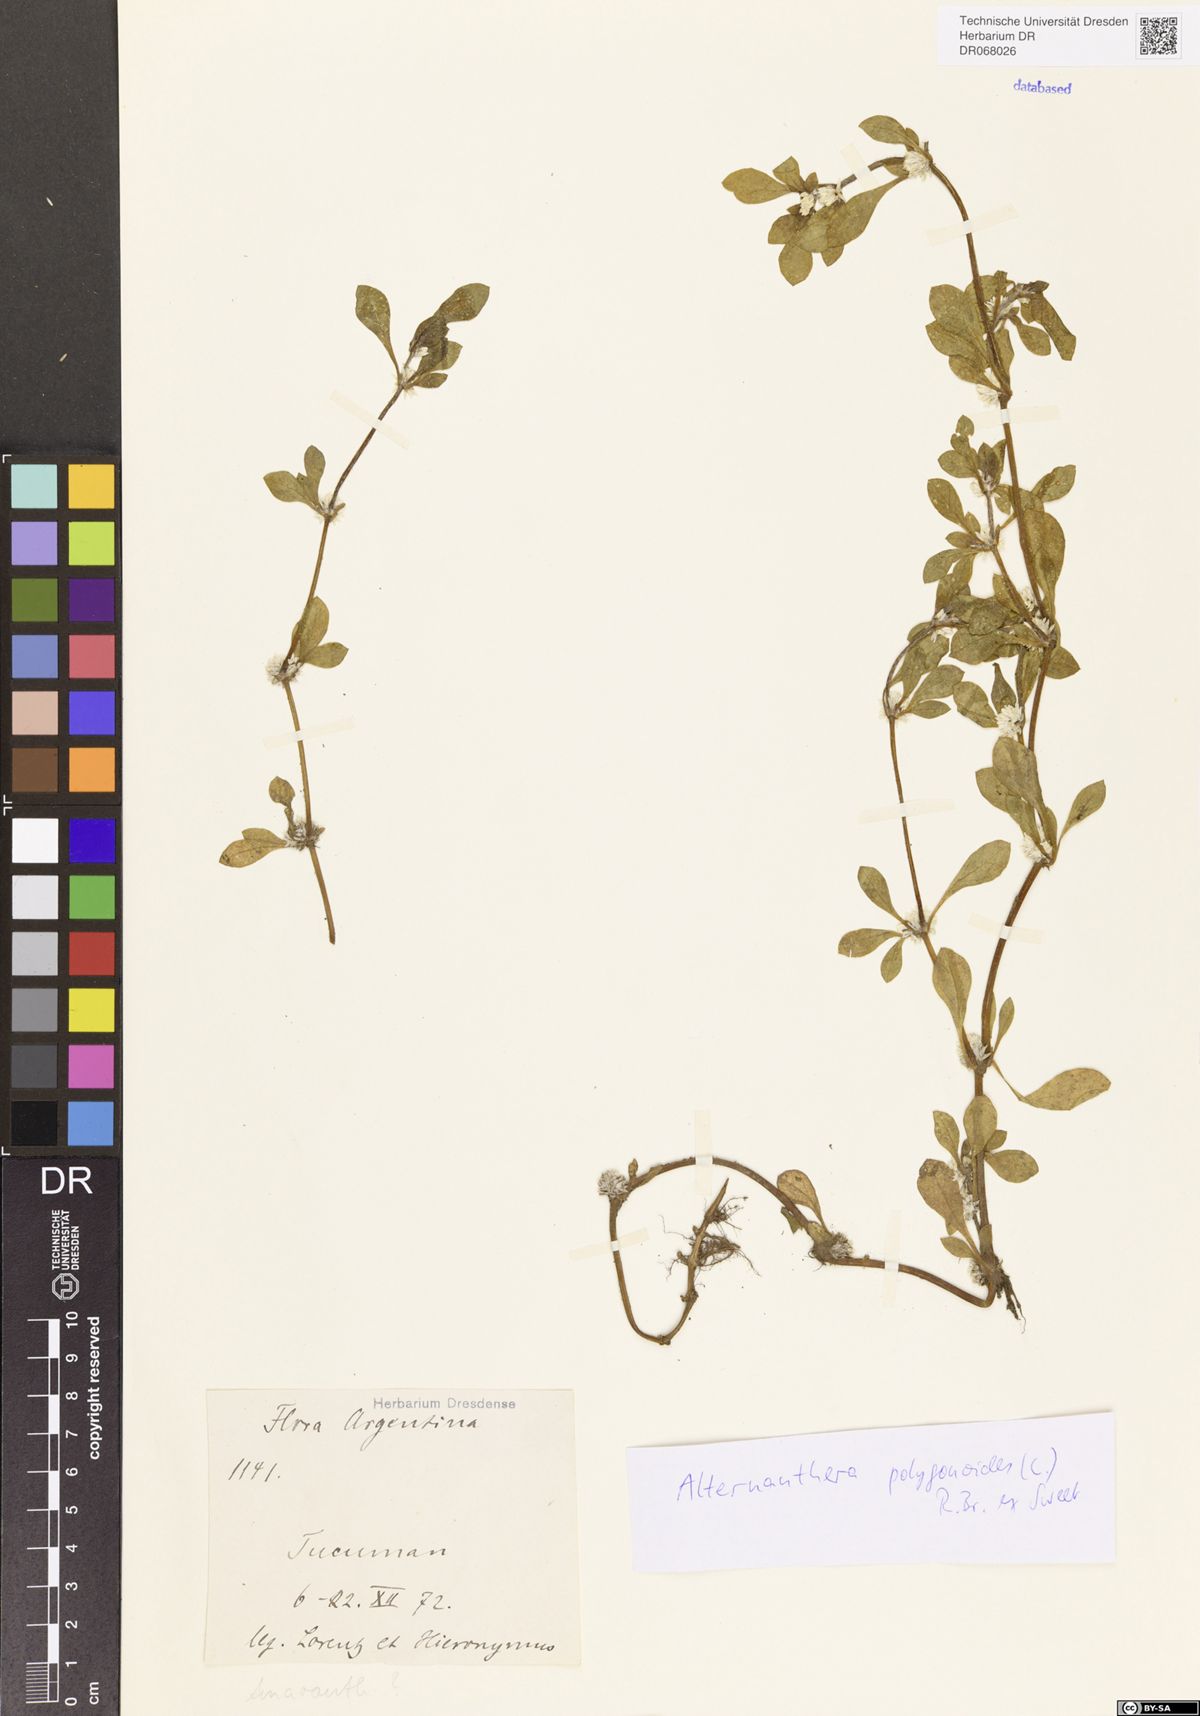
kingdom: Plantae
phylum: Tracheophyta
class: Magnoliopsida
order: Caryophyllales
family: Amaranthaceae
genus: Alternanthera
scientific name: Alternanthera sessilis
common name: Sessile joyweed
